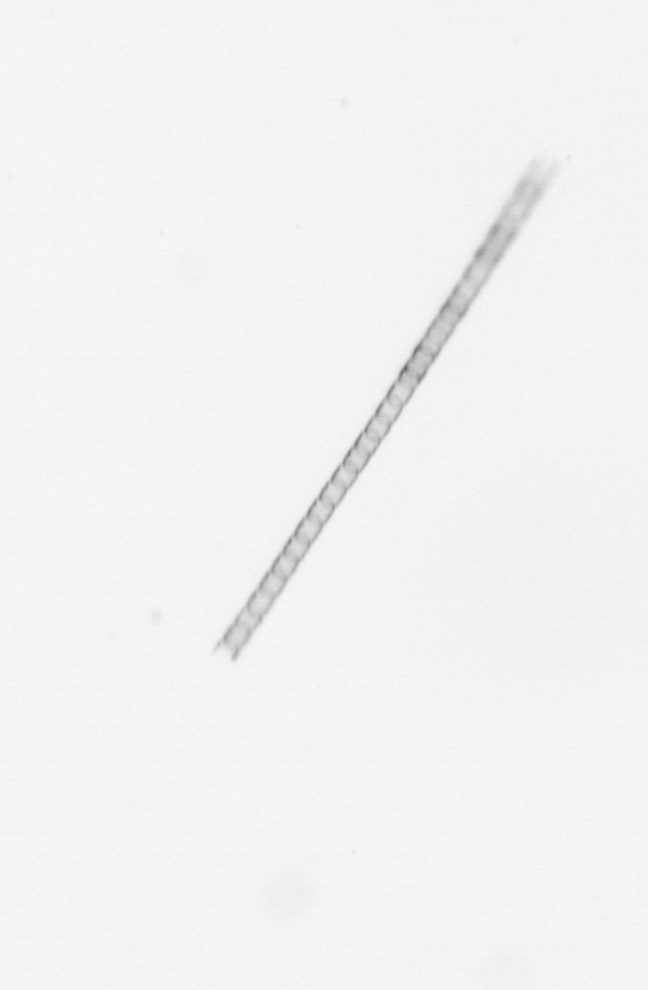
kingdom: Chromista
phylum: Ochrophyta
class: Bacillariophyceae
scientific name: Bacillariophyceae
